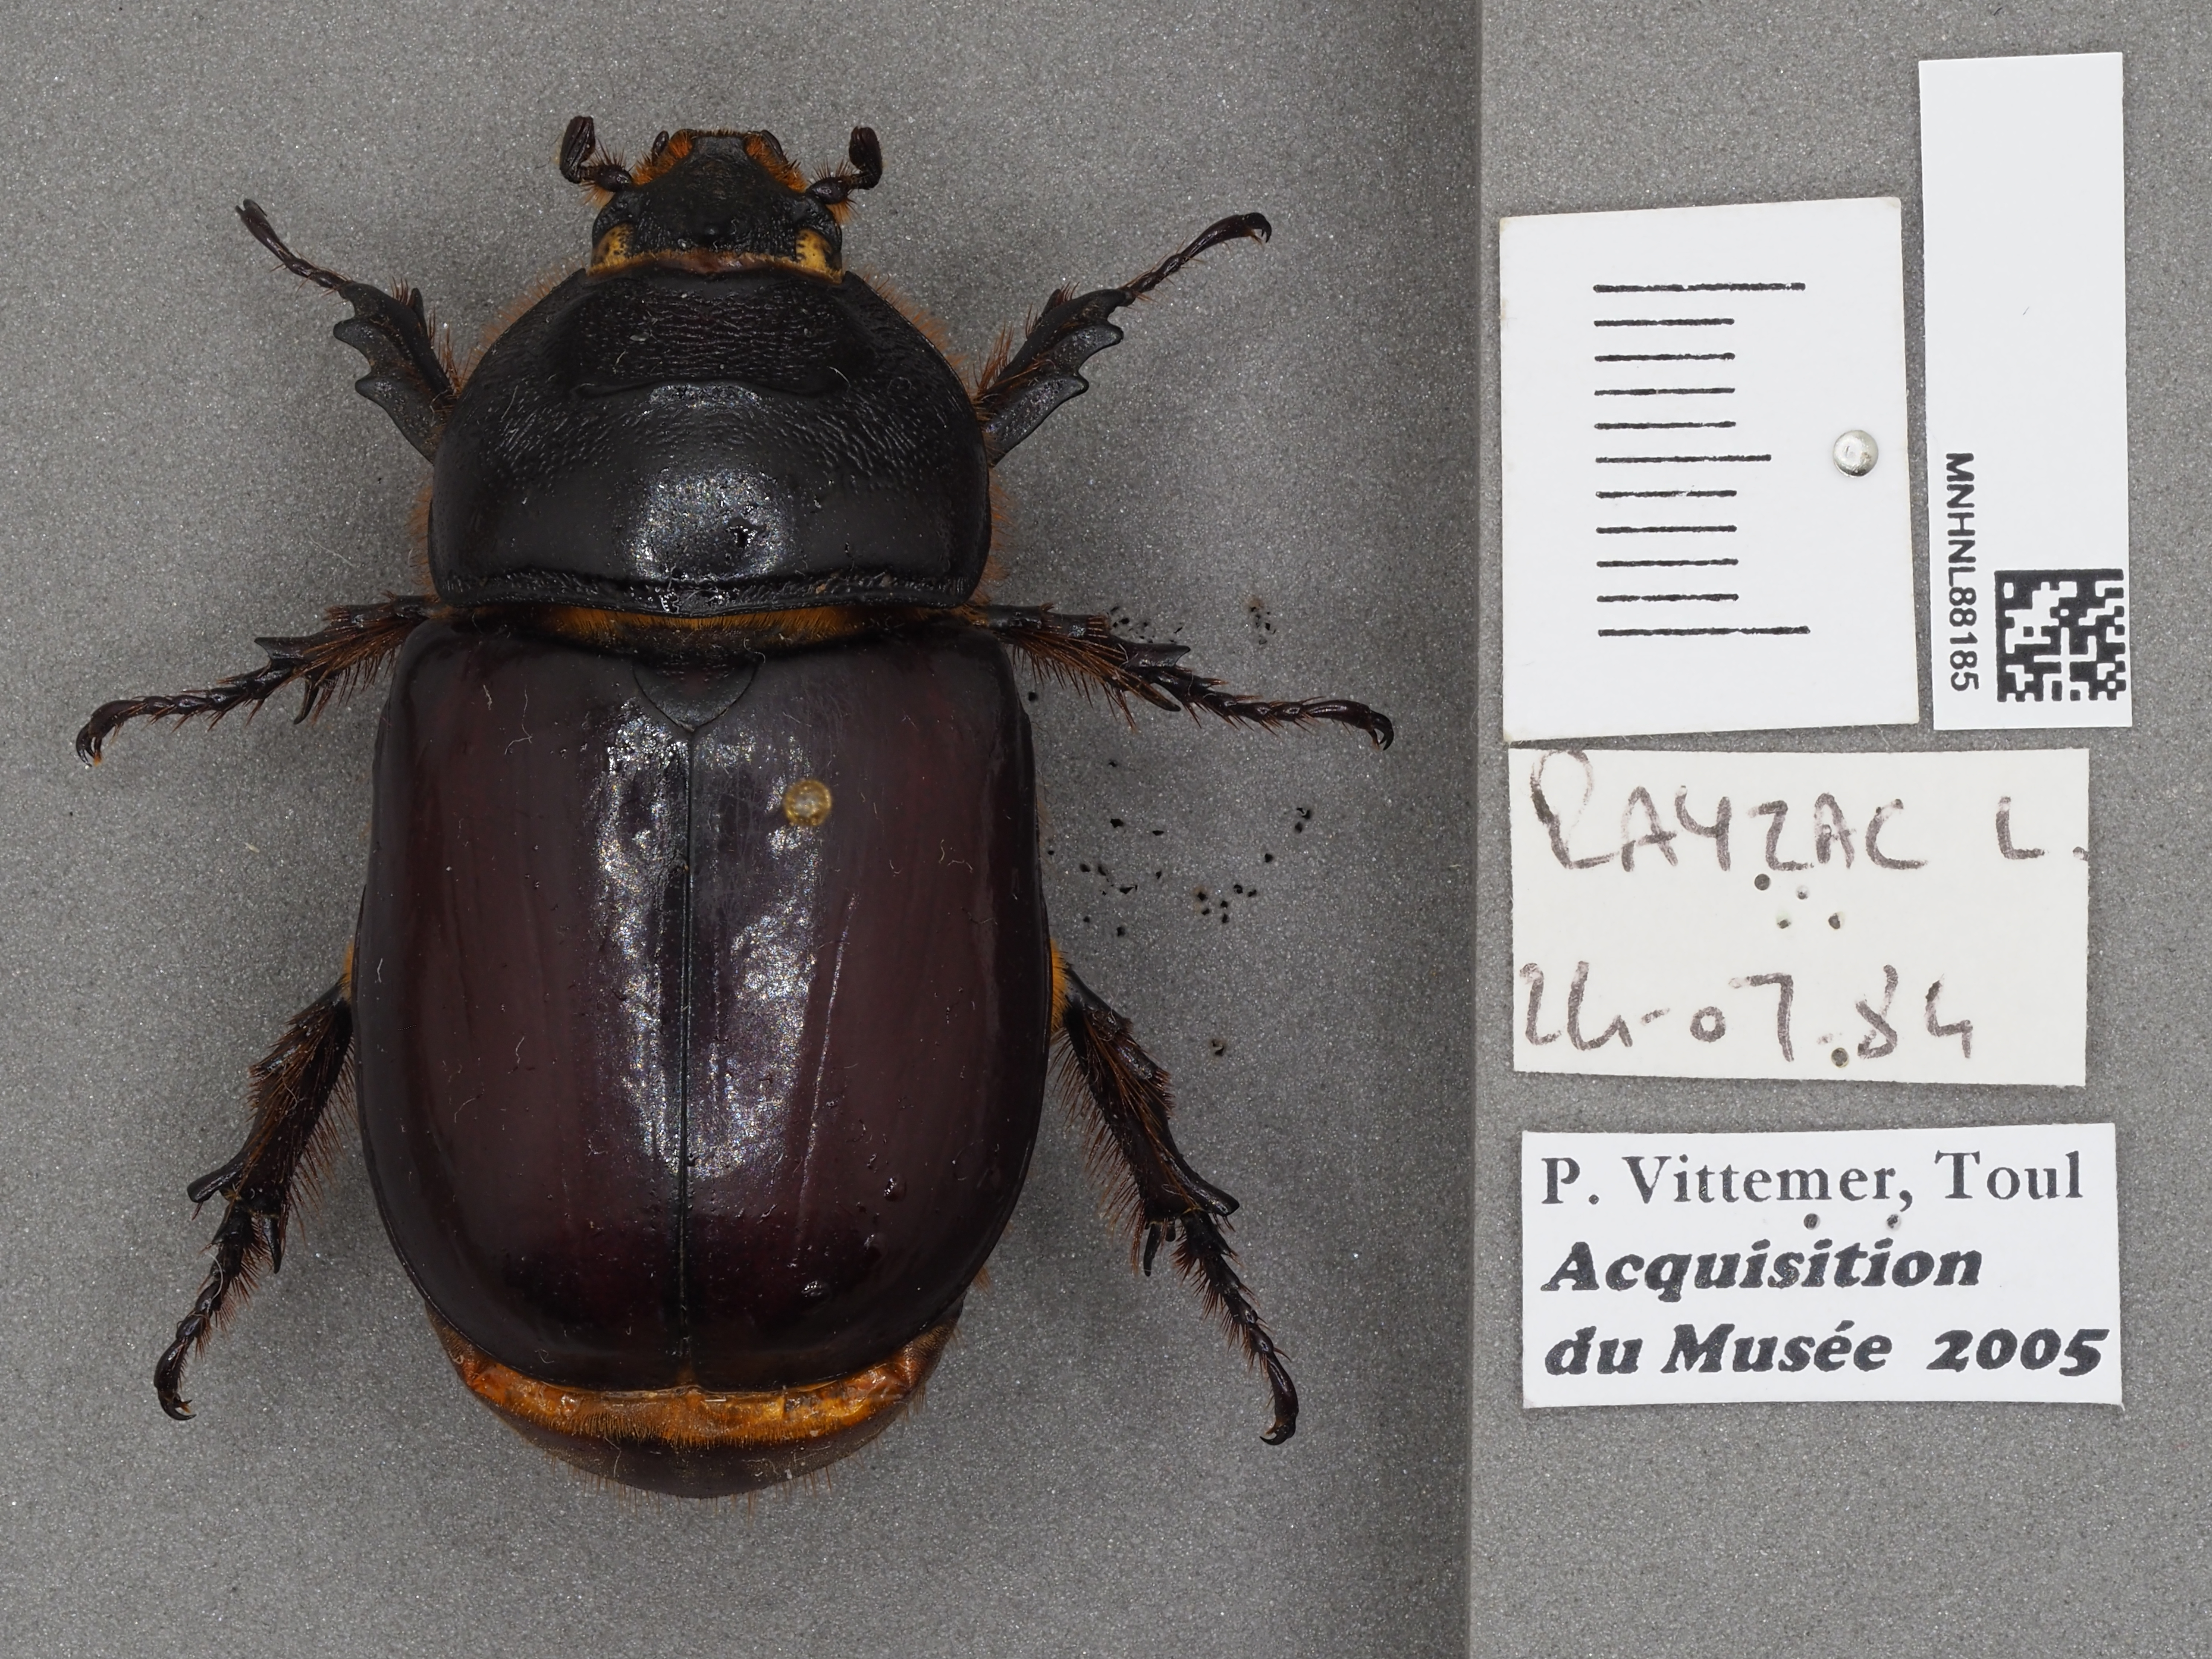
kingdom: Animalia
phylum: Arthropoda
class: Insecta
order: Coleoptera
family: Scarabaeidae
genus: Oryctes
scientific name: Oryctes nasicornis
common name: European rhinoceros beetle
